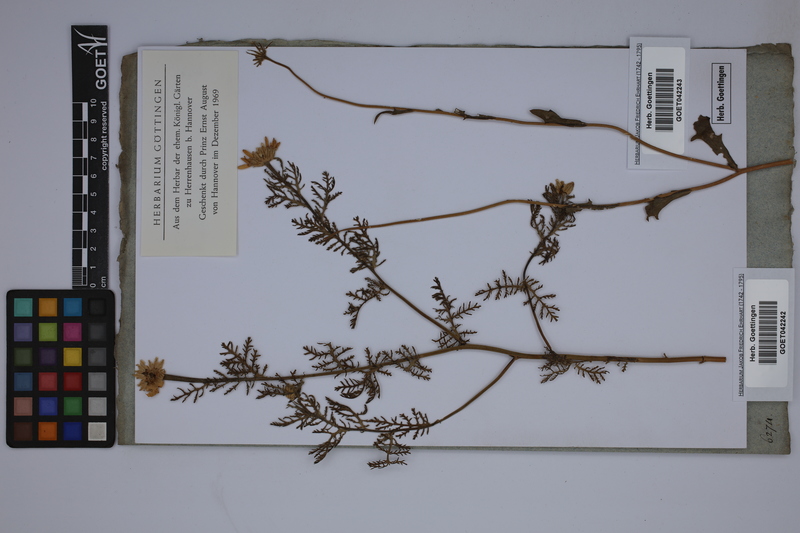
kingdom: Plantae
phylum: Tracheophyta
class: Magnoliopsida
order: Asterales
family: Asteraceae
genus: Cota
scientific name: Cota tinctoria
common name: Golden chamomile
